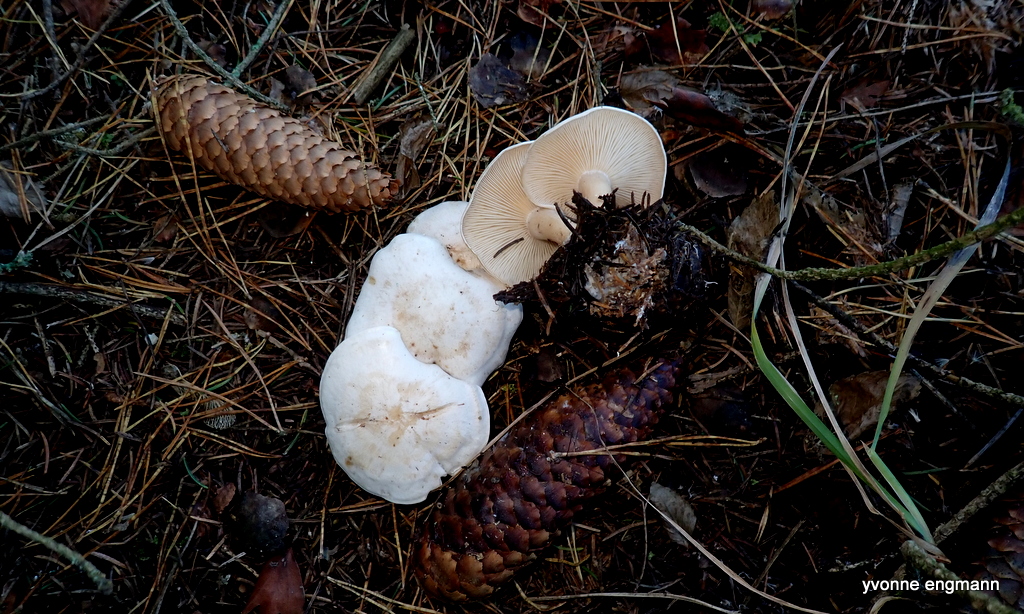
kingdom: Fungi
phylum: Basidiomycota
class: Agaricomycetes
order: Agaricales
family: Tricholomataceae
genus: Clitocybe
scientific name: Clitocybe phyllophila
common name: løv-tragthat
